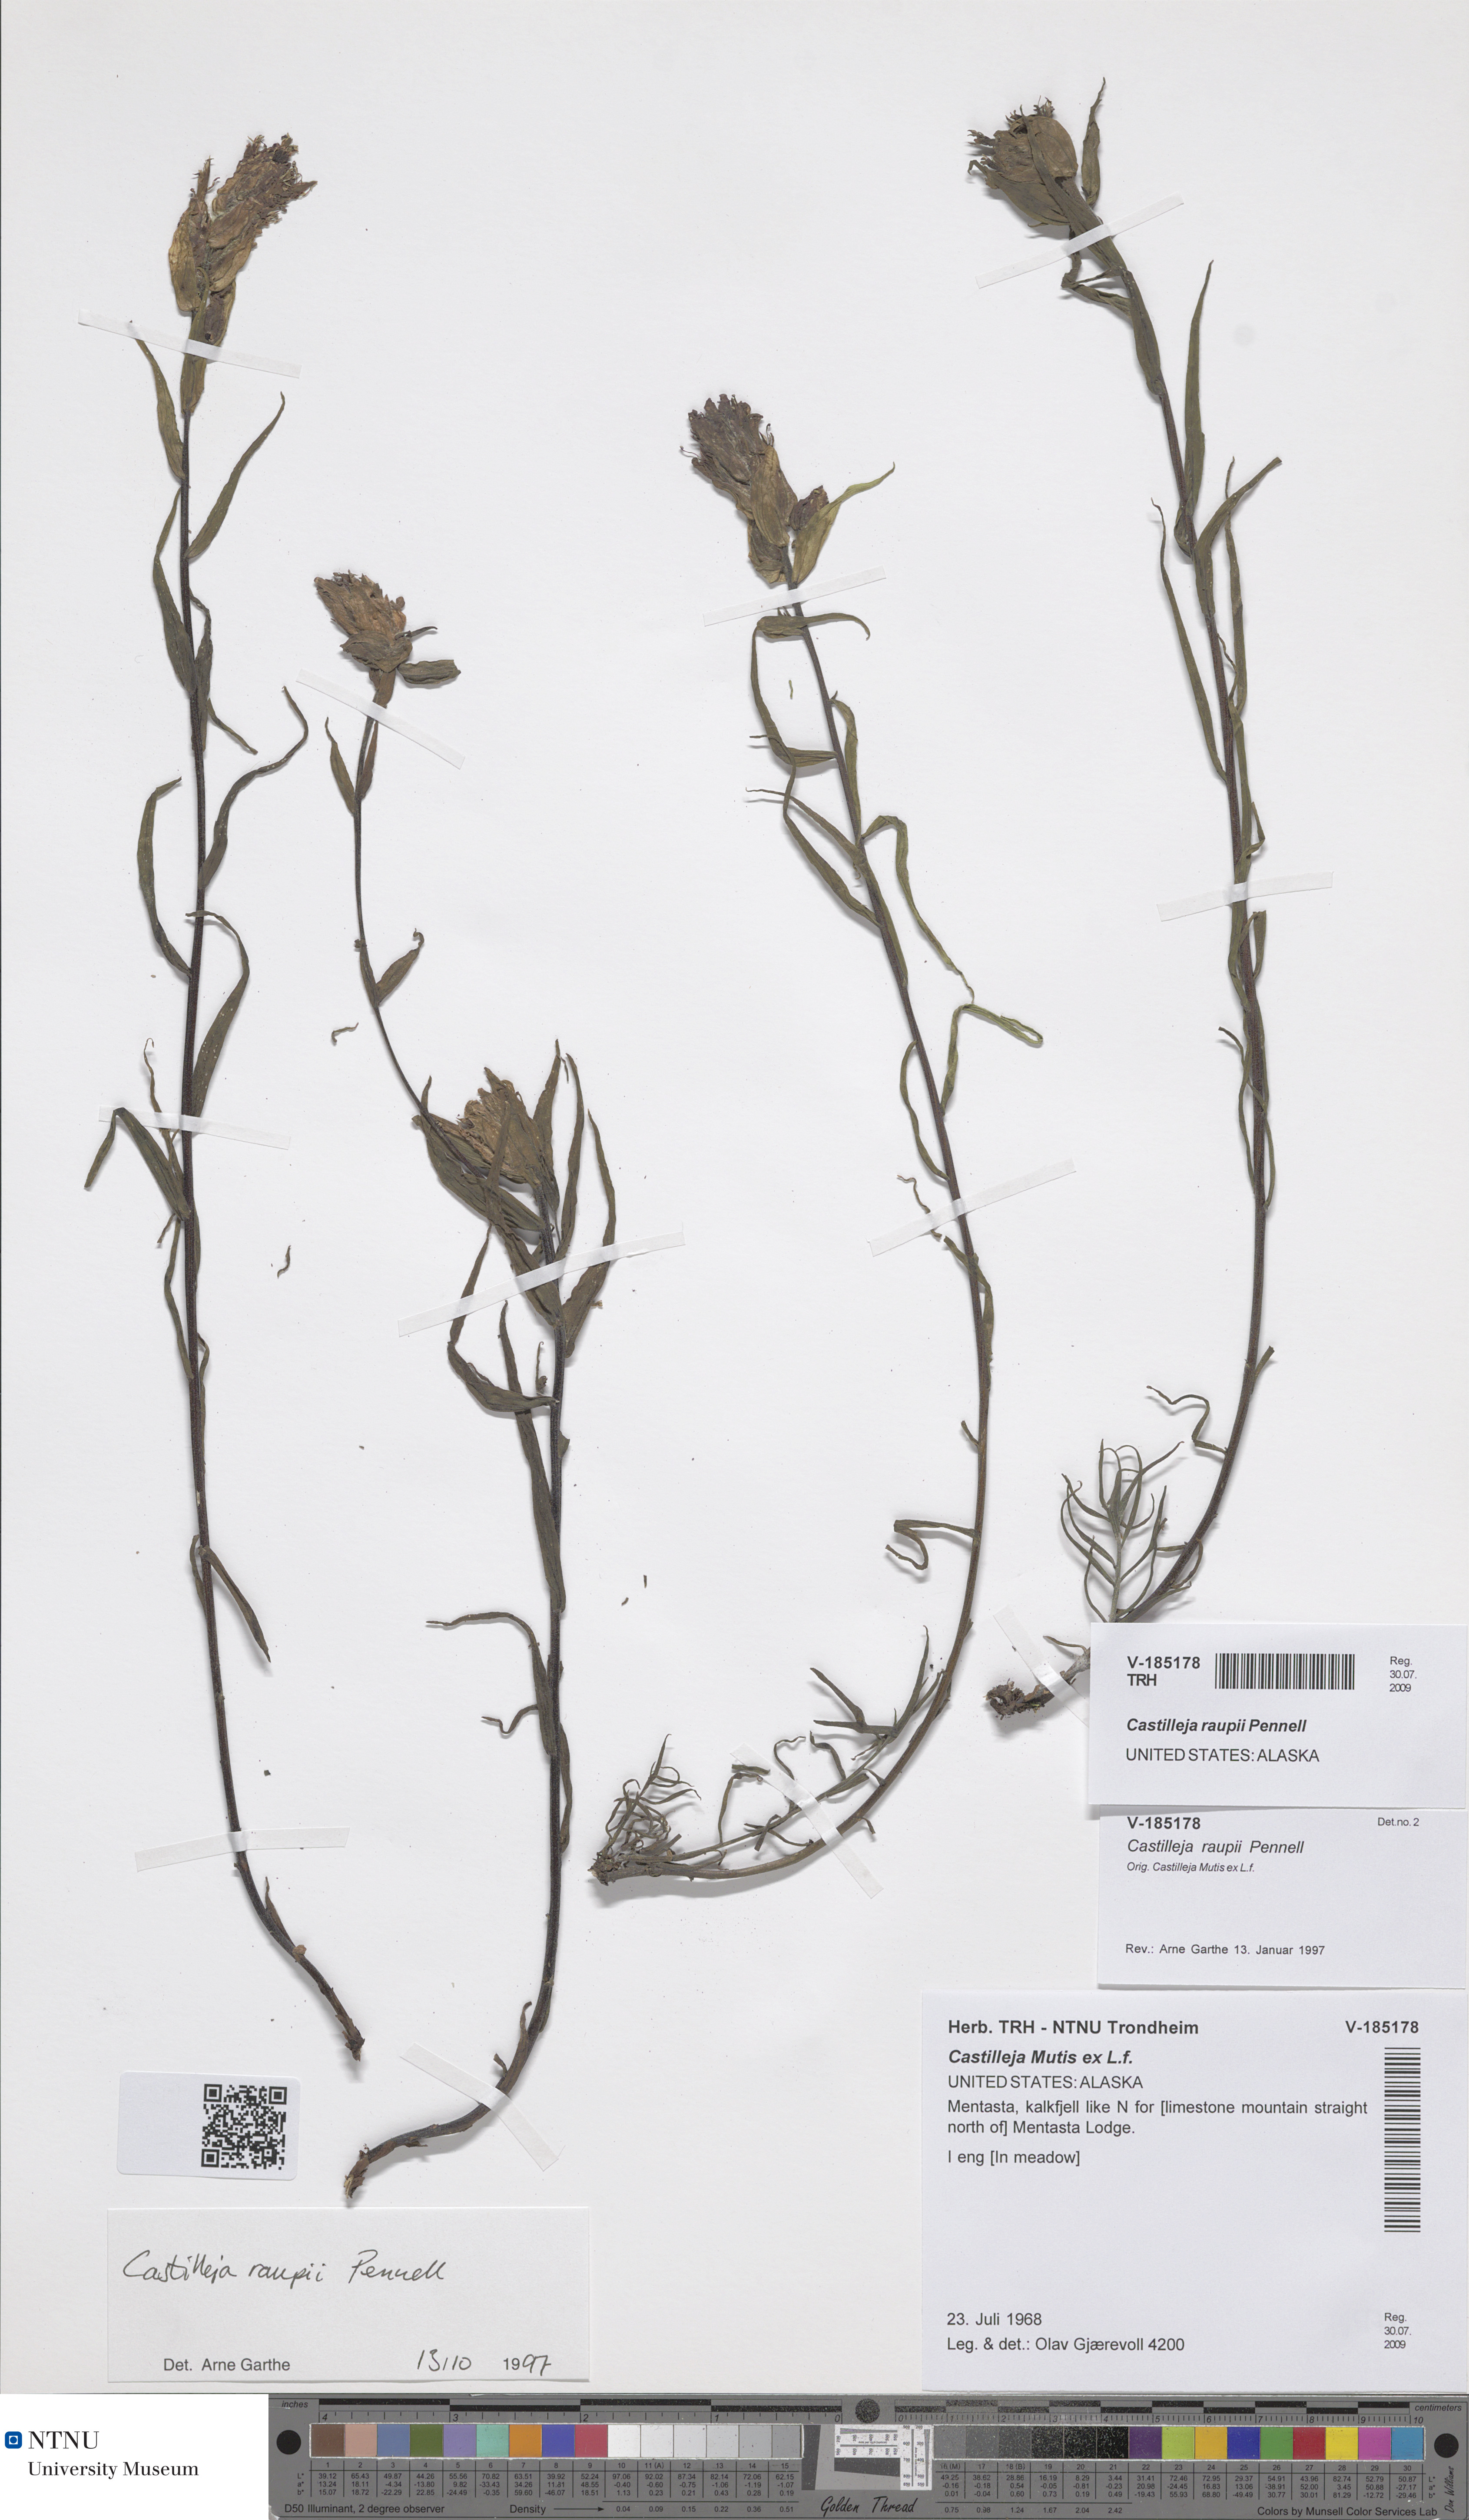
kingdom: Plantae
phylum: Tracheophyta
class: Magnoliopsida
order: Lamiales
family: Orobanchaceae
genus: Castilleja
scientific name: Castilleja raupii
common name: Raup's paintbrush
